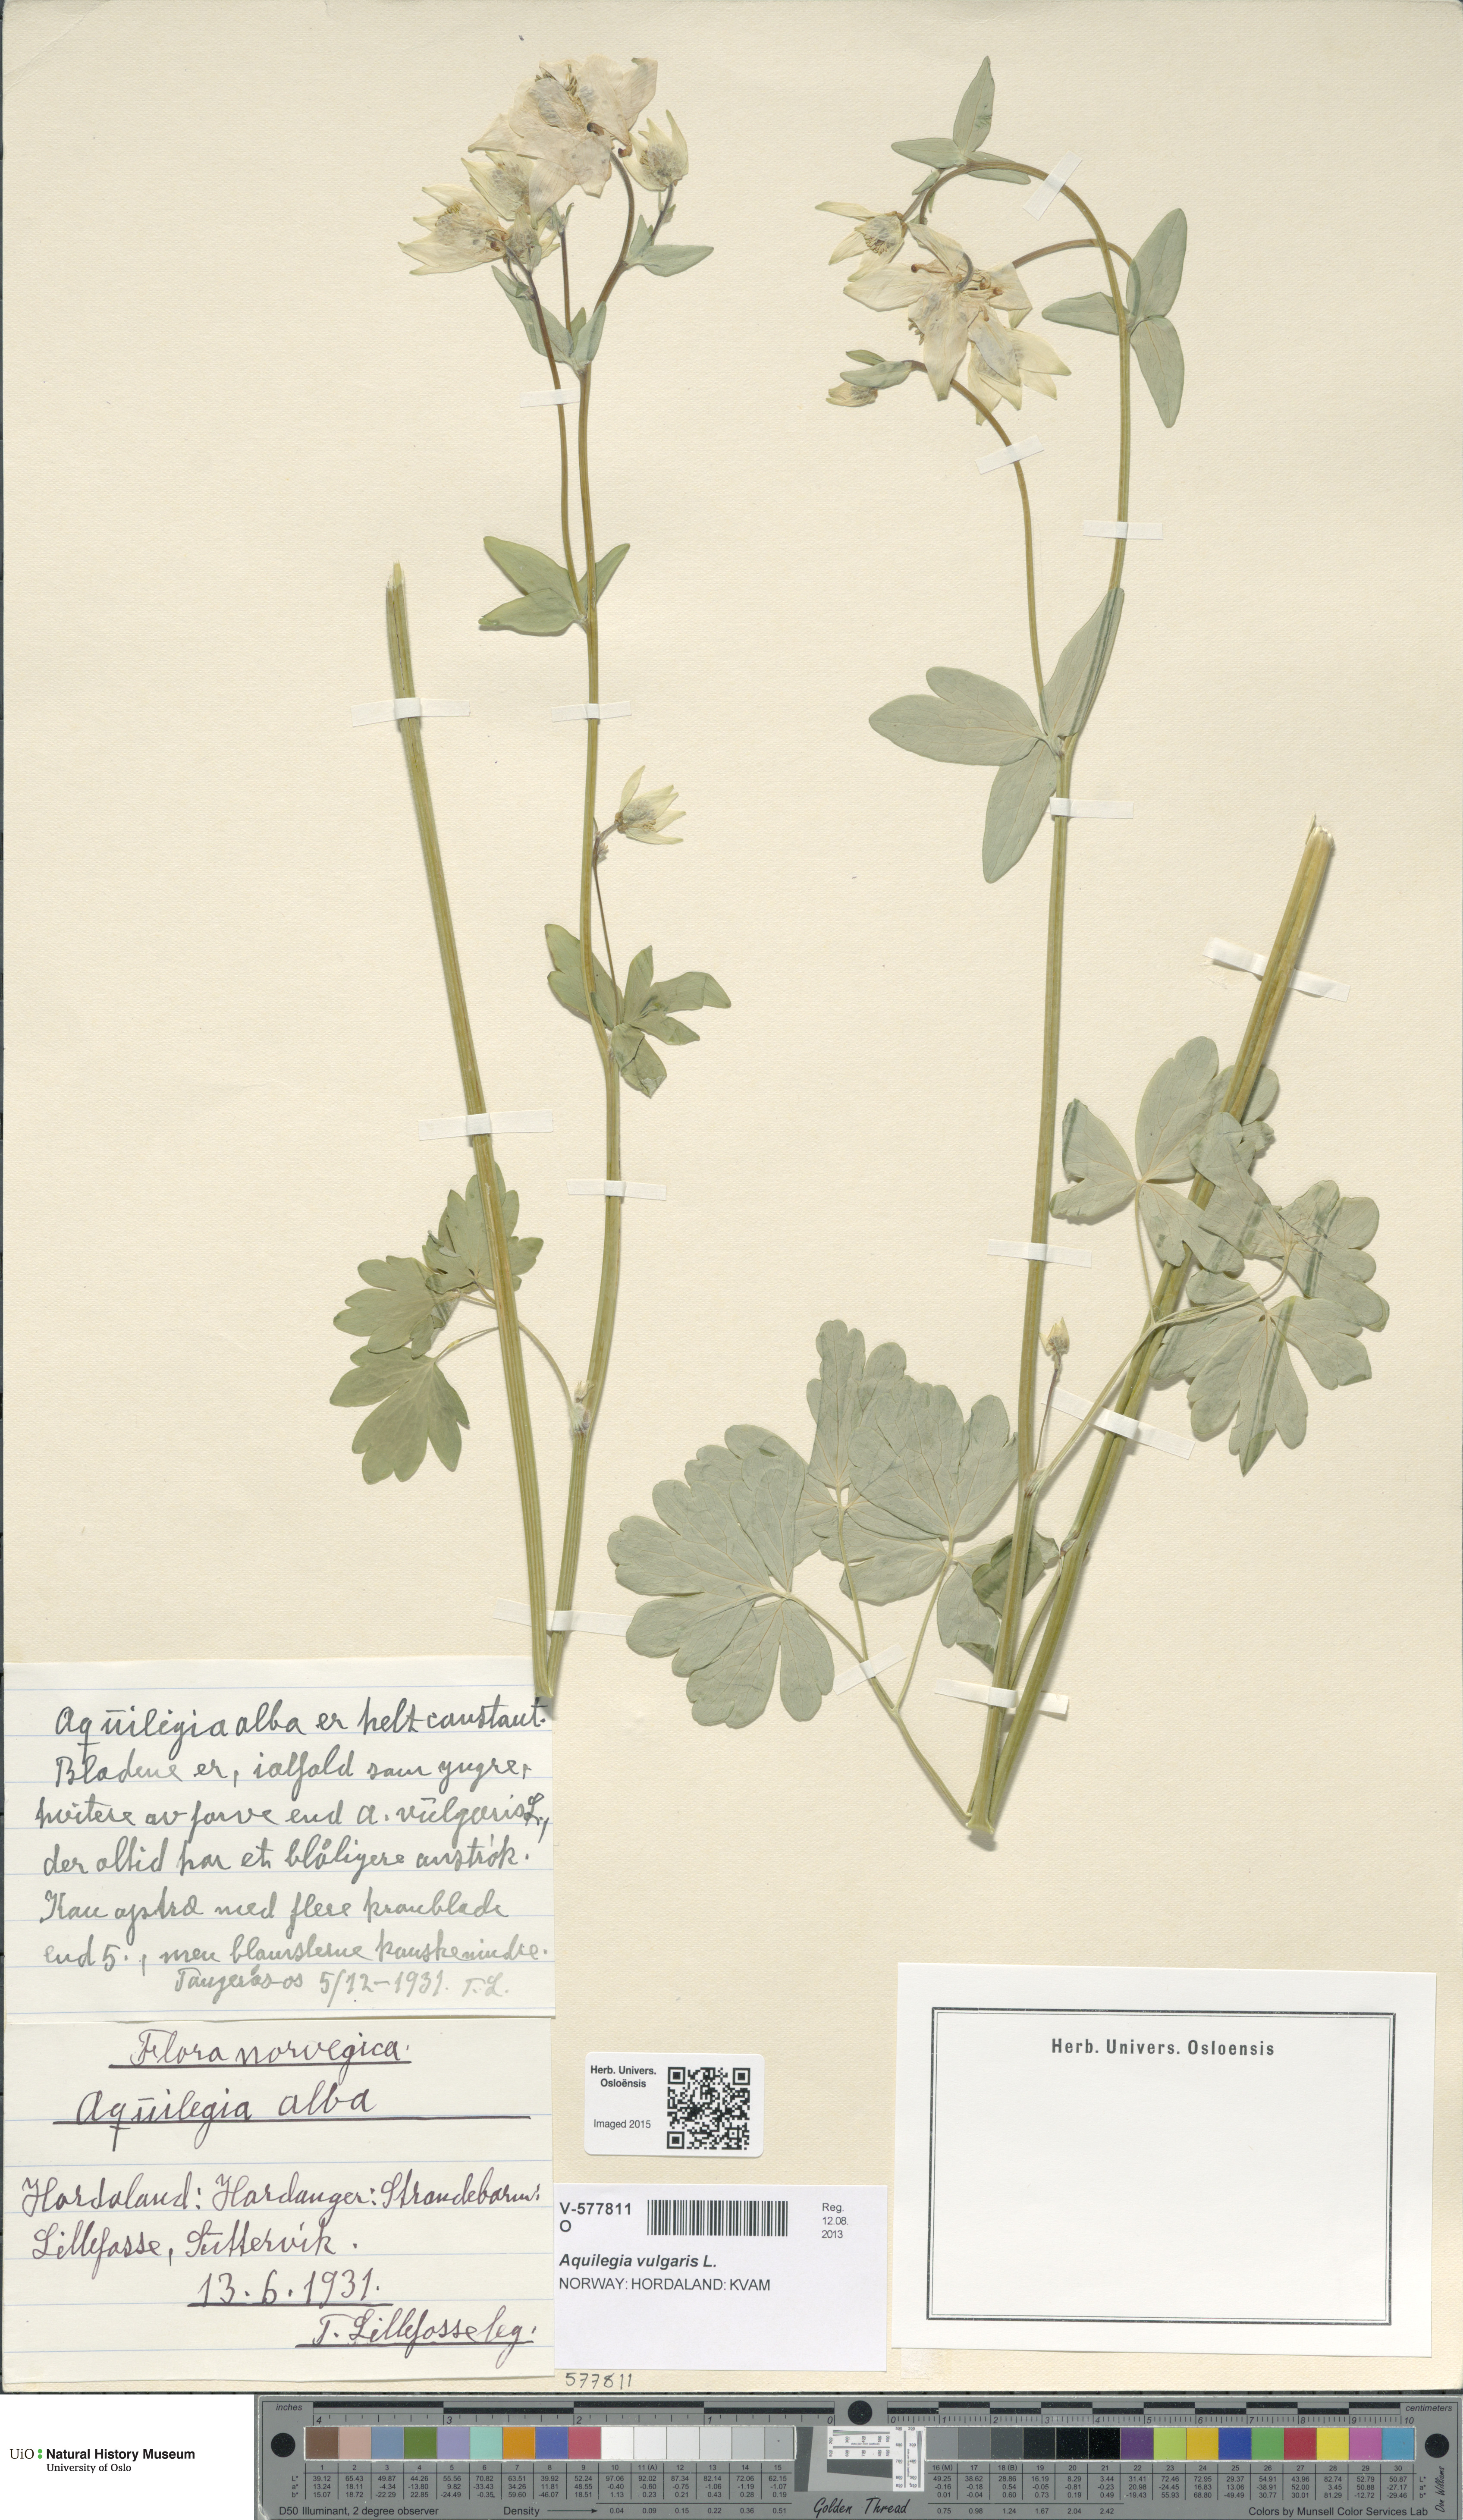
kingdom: Plantae
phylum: Tracheophyta
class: Magnoliopsida
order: Ranunculales
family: Ranunculaceae
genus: Aquilegia
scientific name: Aquilegia vulgaris
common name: Columbine
